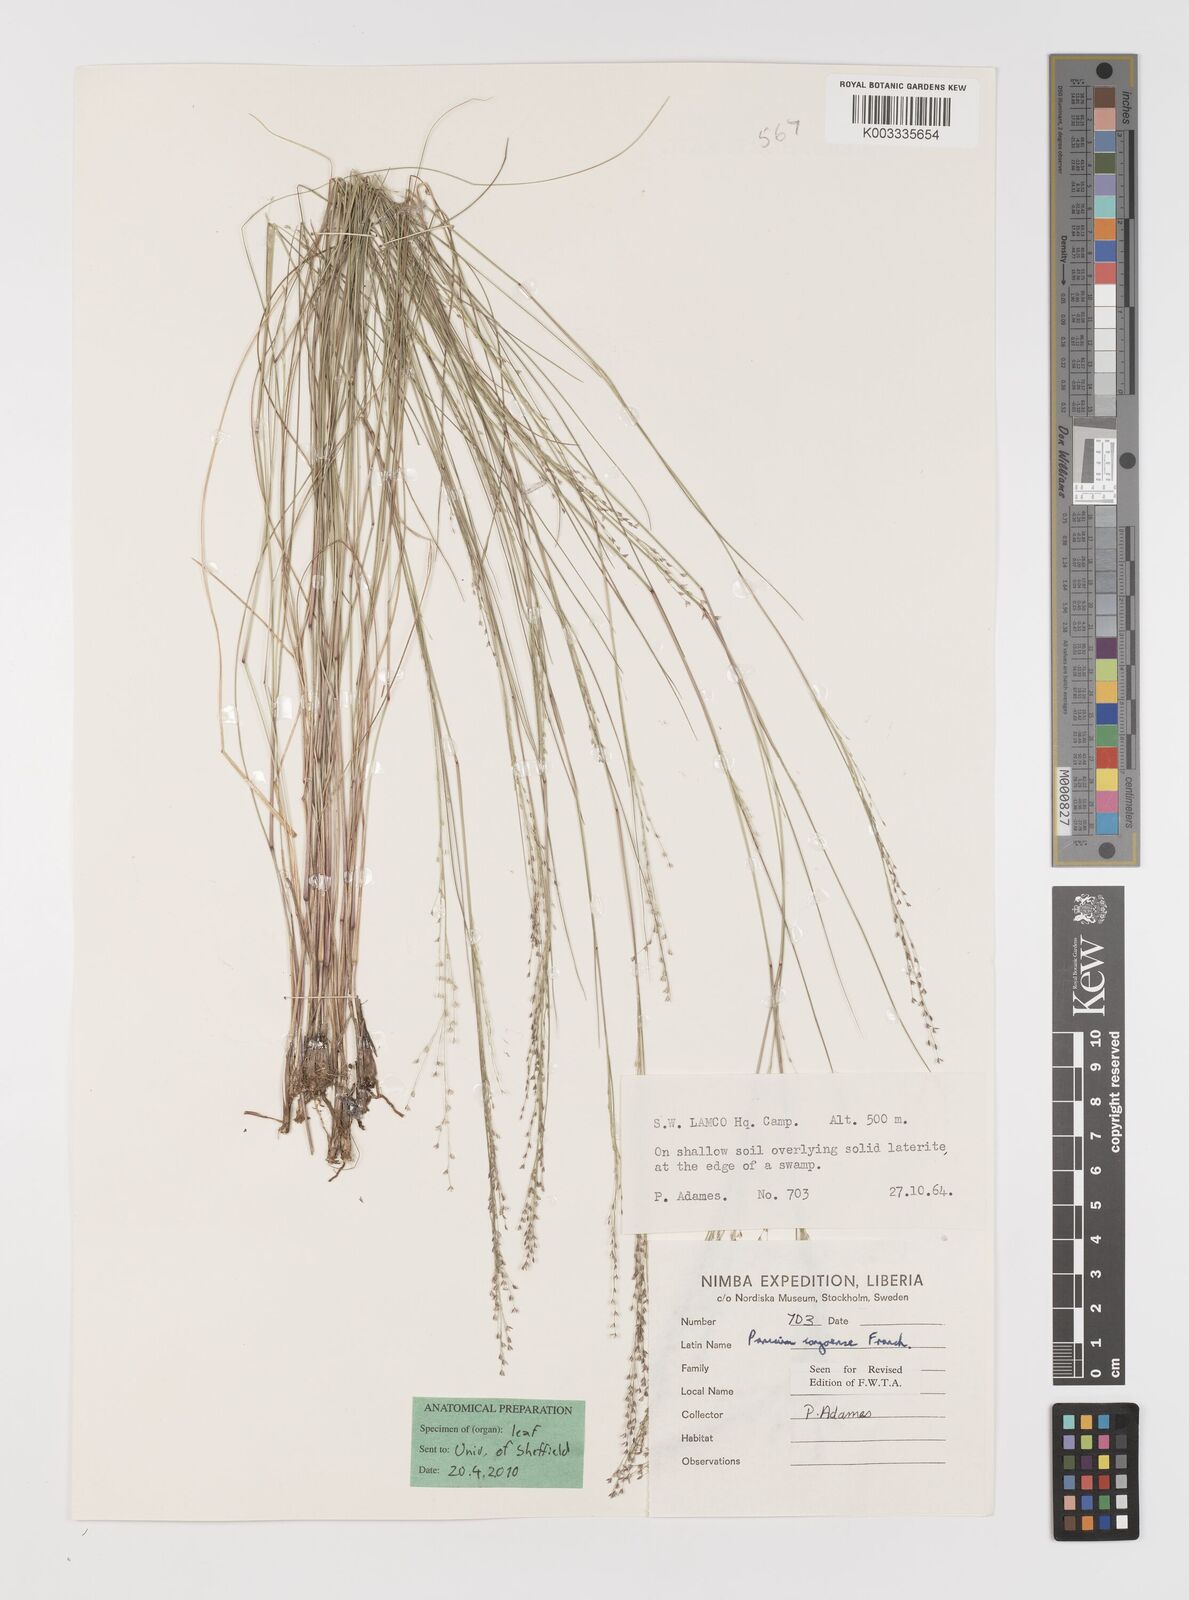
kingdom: Plantae
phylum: Tracheophyta
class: Liliopsida
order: Poales
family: Poaceae
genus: Panicum
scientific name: Panicum congoense
